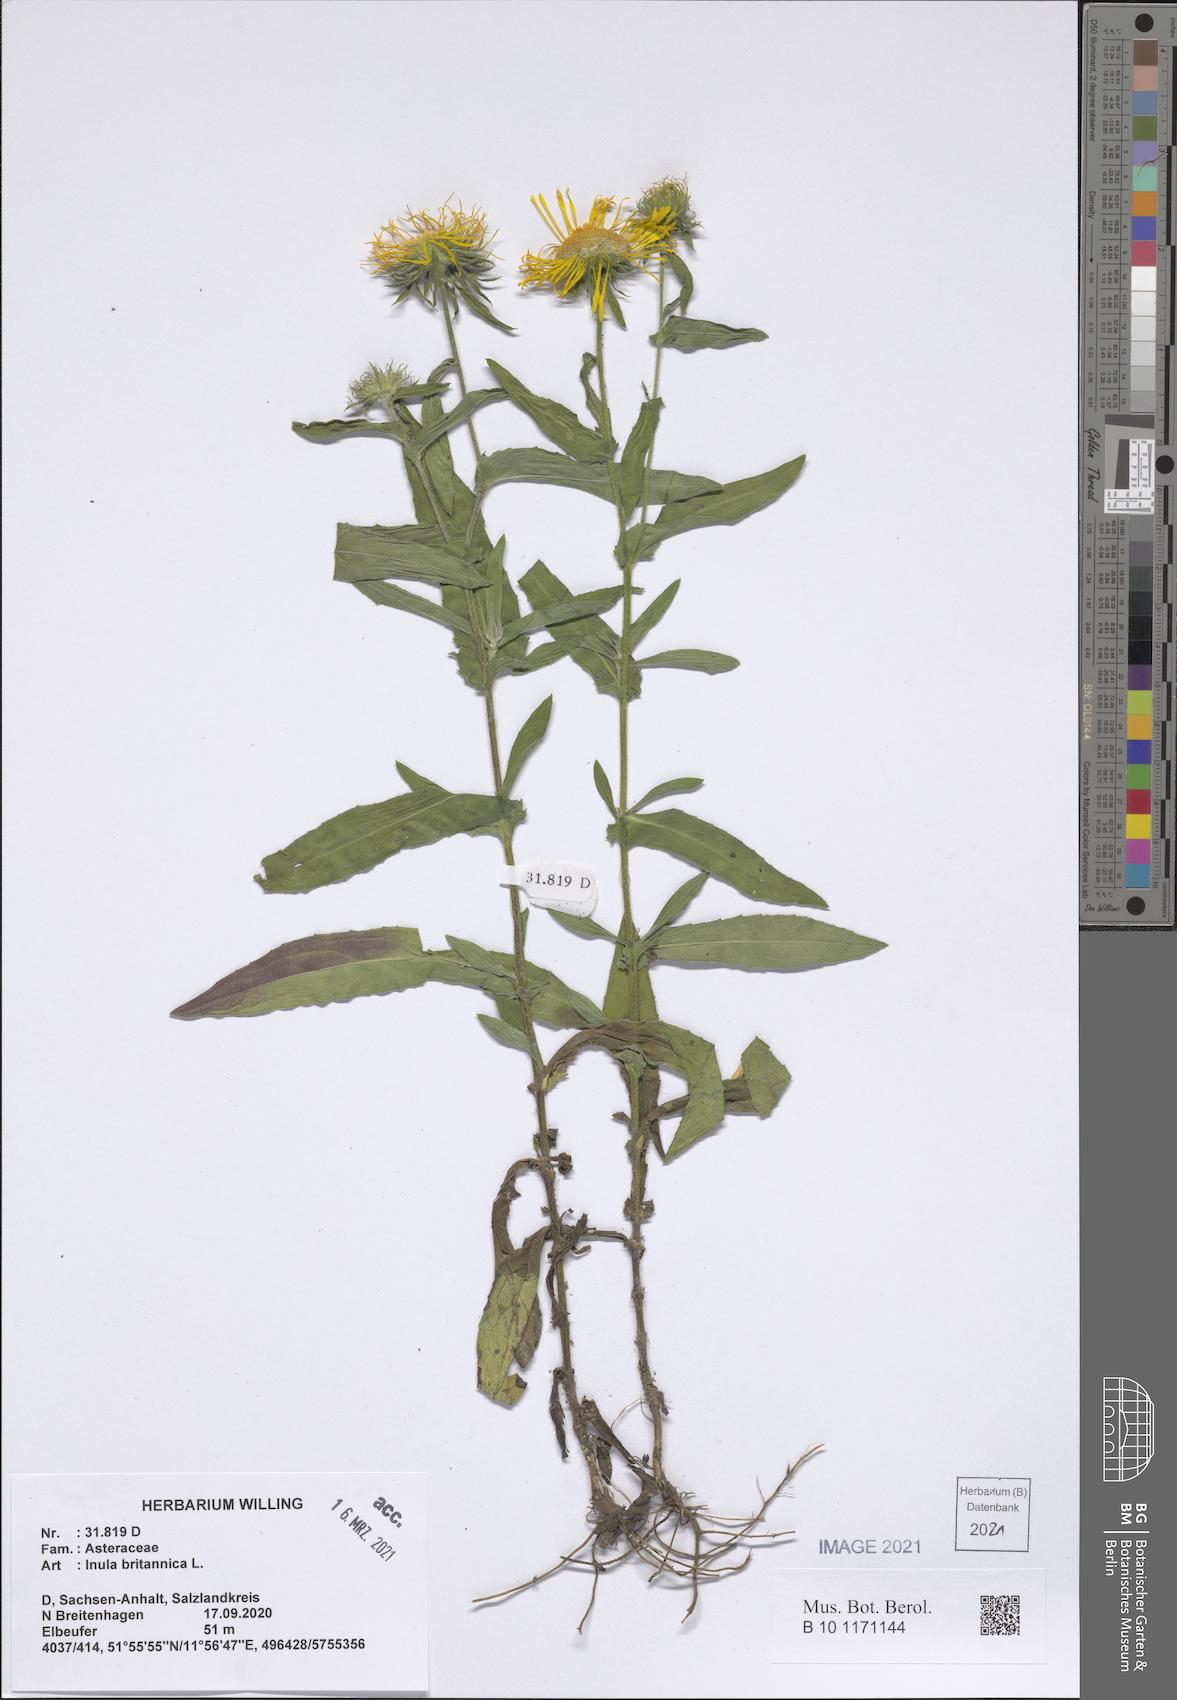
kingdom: Plantae
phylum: Tracheophyta
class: Magnoliopsida
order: Asterales
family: Asteraceae
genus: Pentanema
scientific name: Pentanema britannicum
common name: British elecampane
